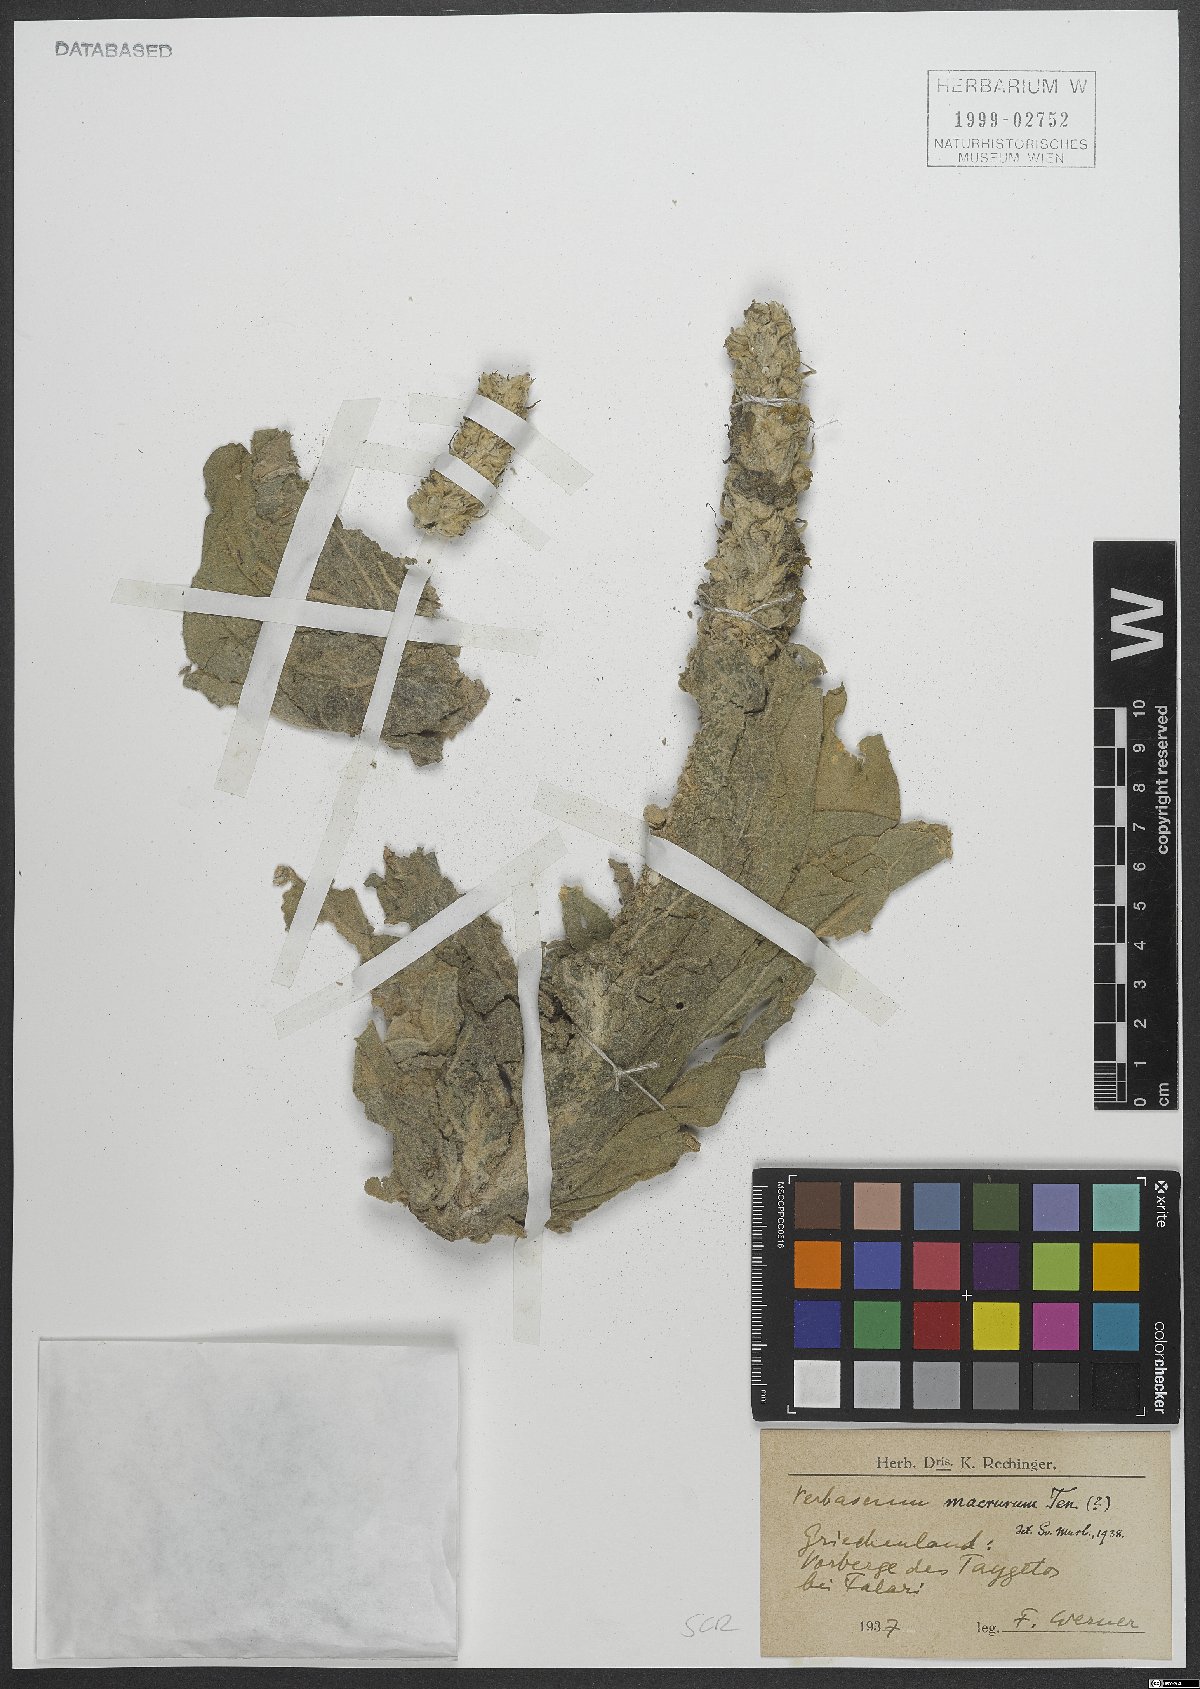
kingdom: Plantae
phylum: Tracheophyta
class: Magnoliopsida
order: Lamiales
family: Scrophulariaceae
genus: Verbascum
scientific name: Verbascum macrurum
